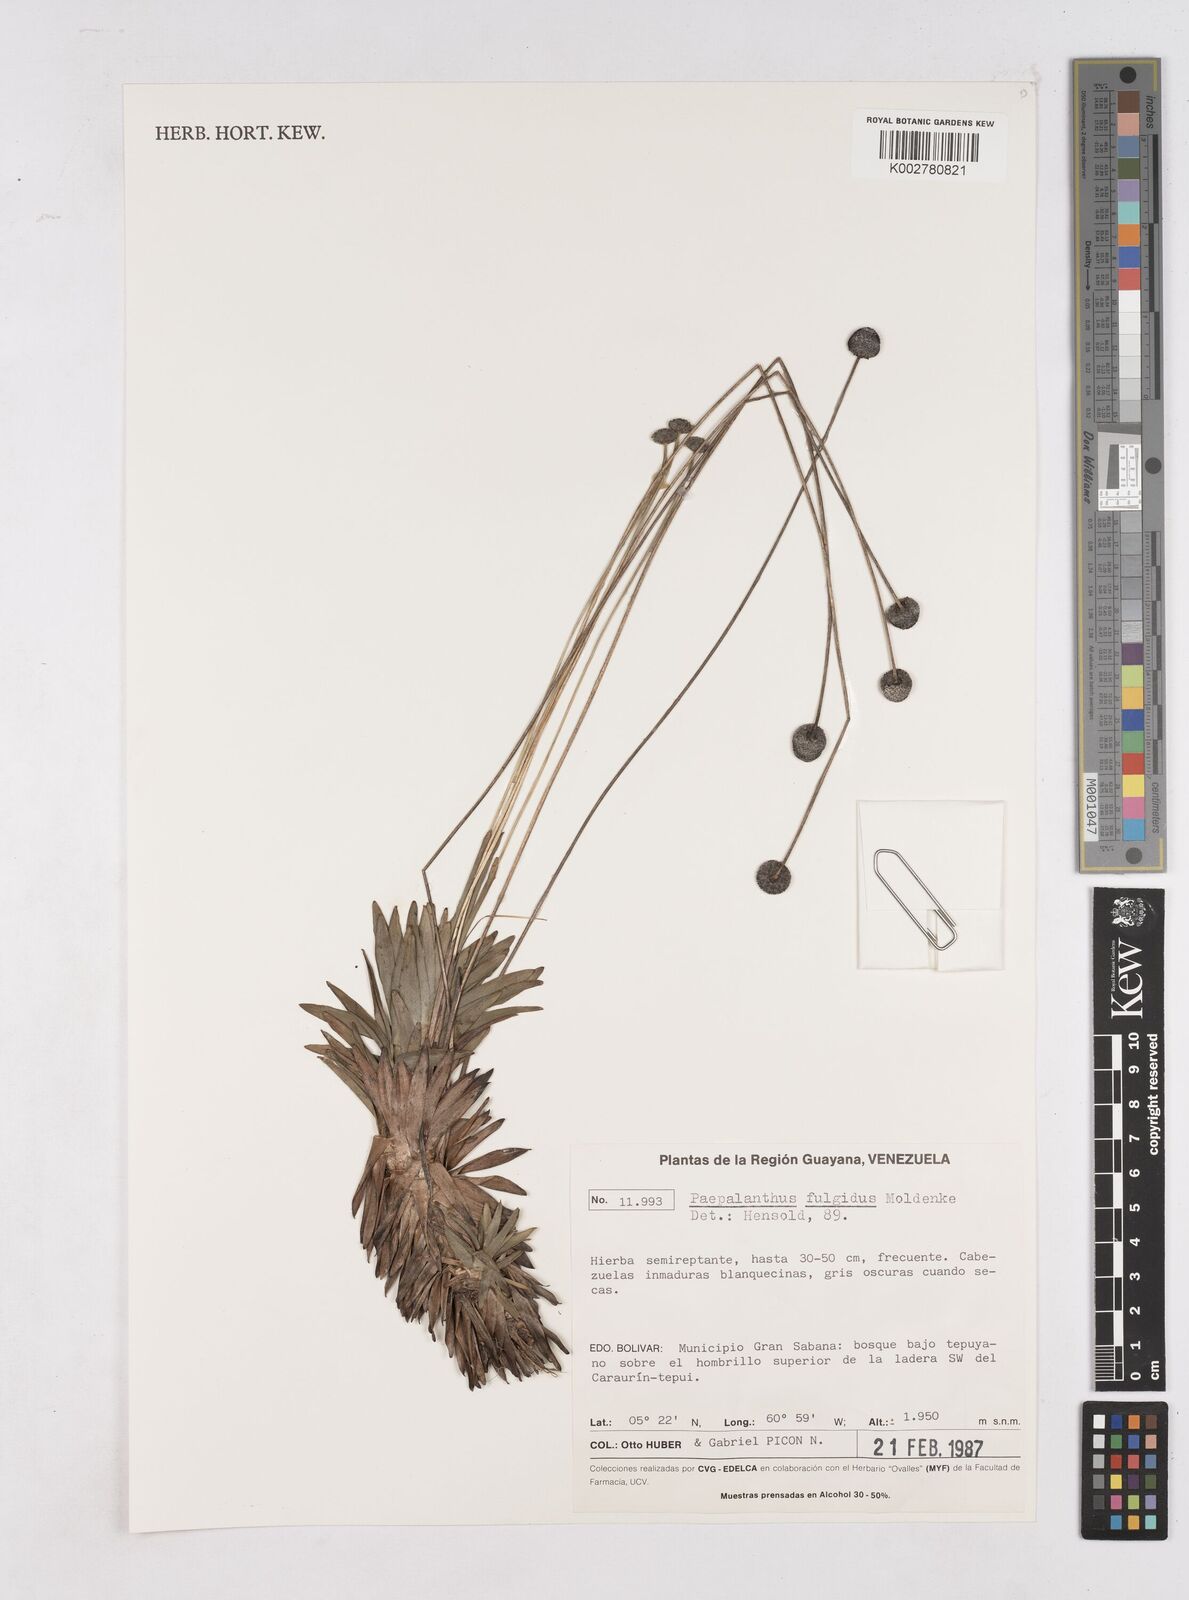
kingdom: Plantae
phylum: Tracheophyta
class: Liliopsida
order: Poales
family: Eriocaulaceae
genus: Paepalanthus
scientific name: Paepalanthus fulgidus
